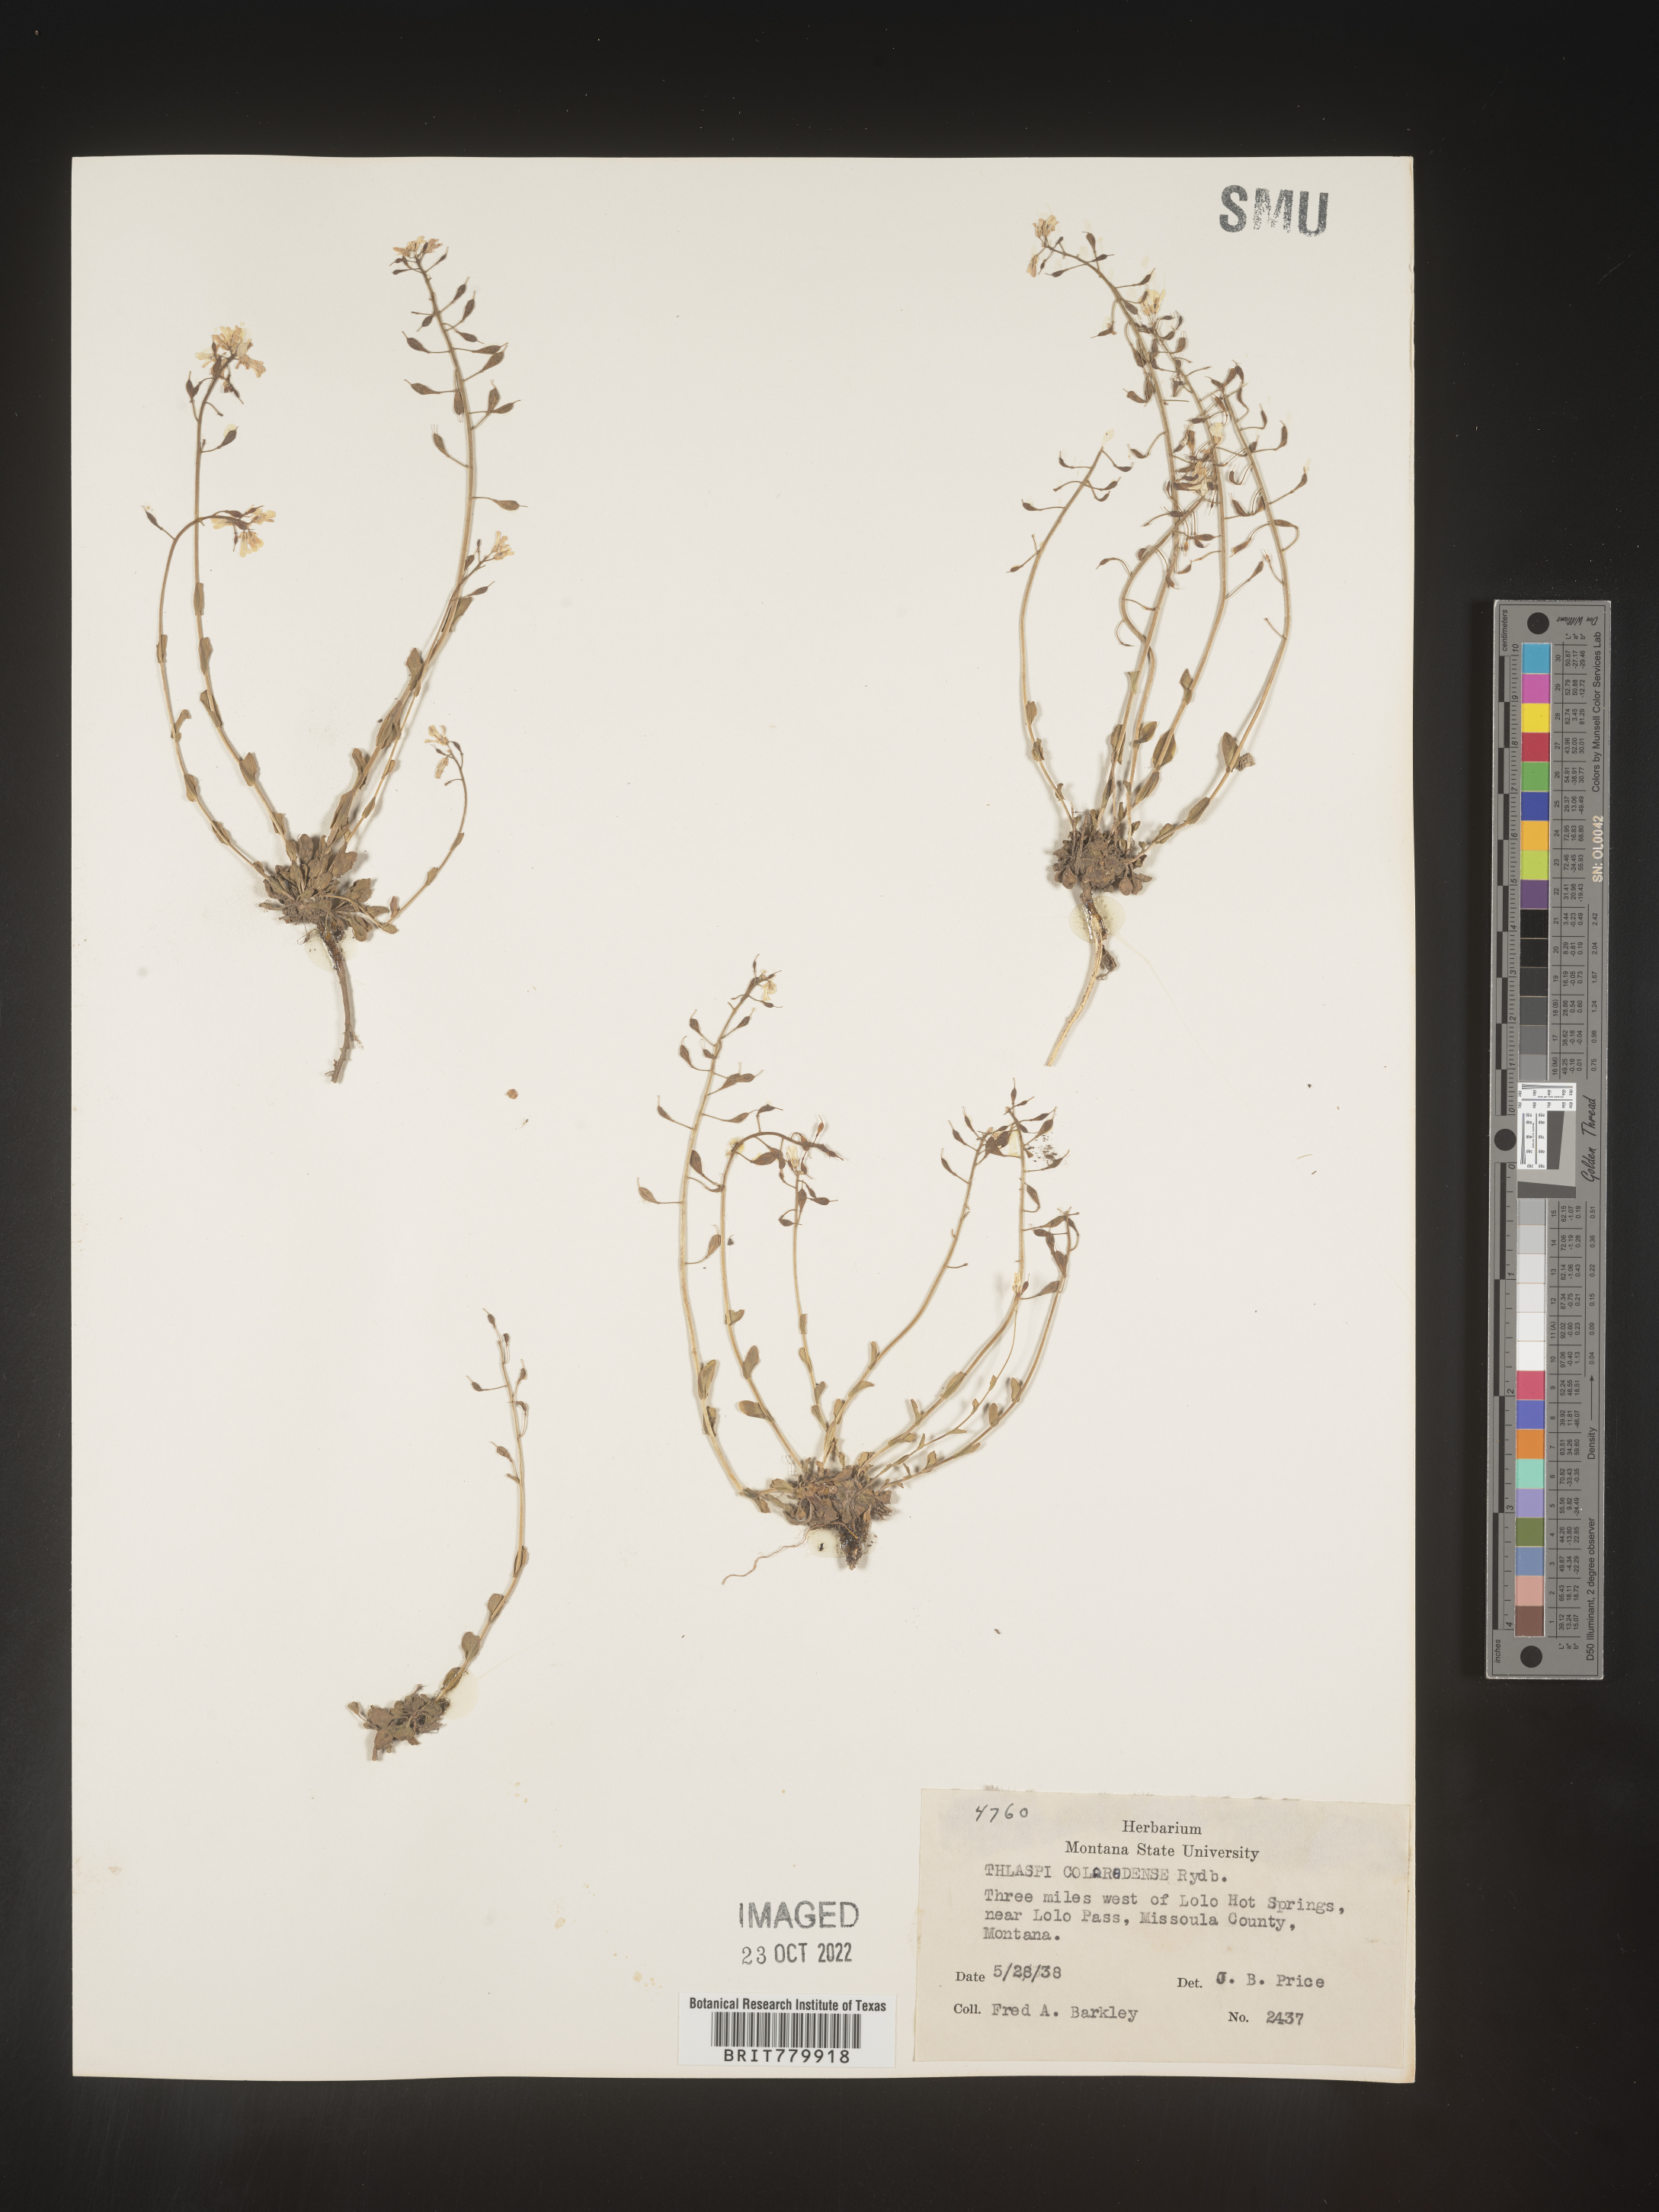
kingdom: Plantae
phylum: Tracheophyta
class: Magnoliopsida
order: Brassicales
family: Brassicaceae
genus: Thlaspi
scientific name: Thlaspi
